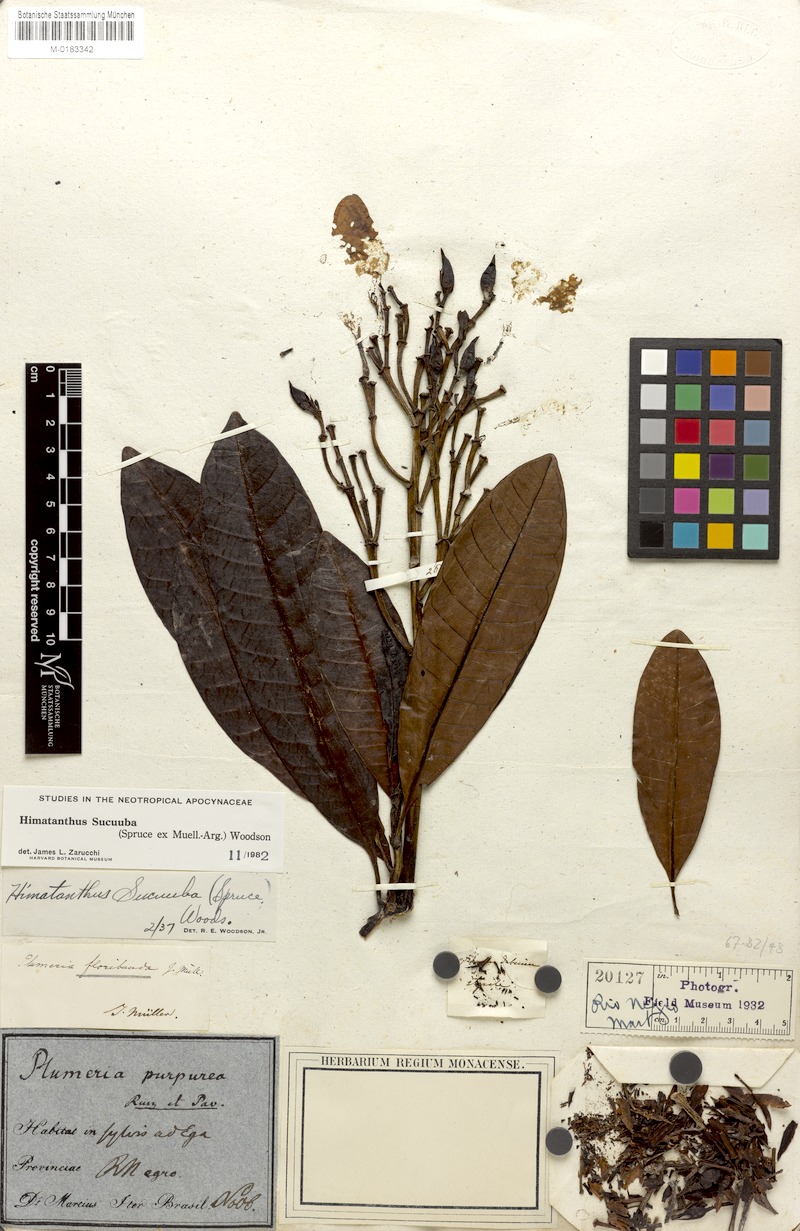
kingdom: Plantae
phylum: Tracheophyta
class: Magnoliopsida
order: Gentianales
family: Apocynaceae
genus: Himatanthus
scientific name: Himatanthus articulatus
